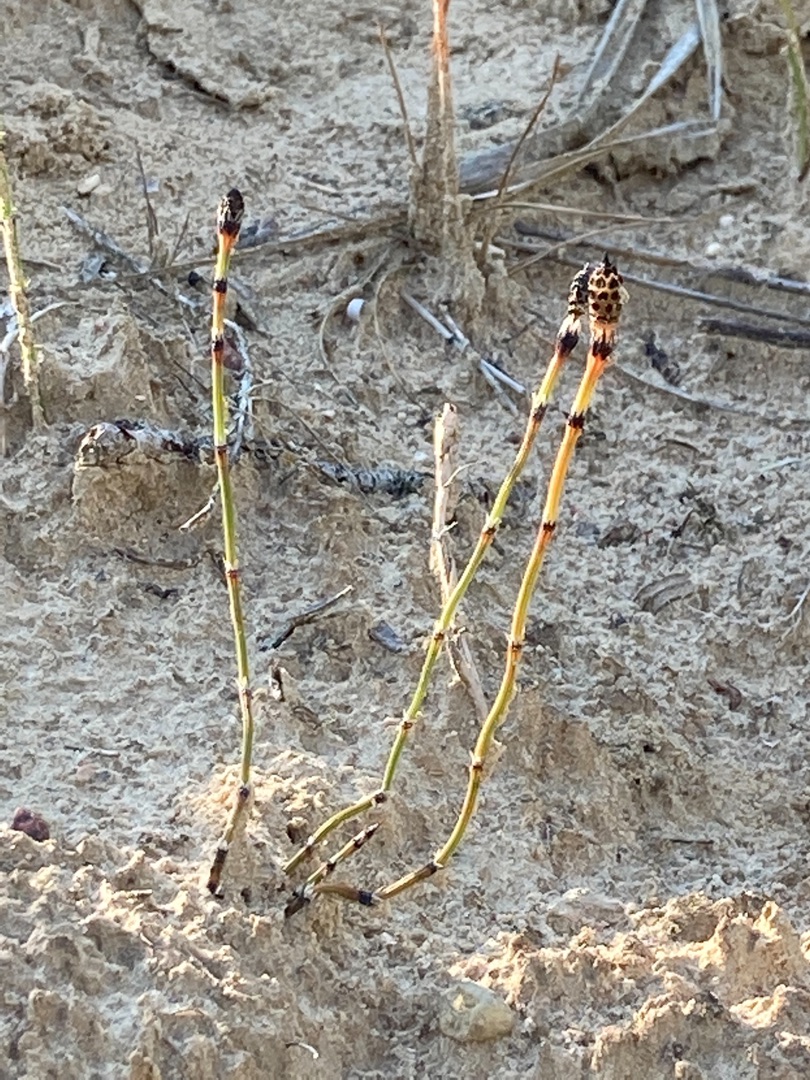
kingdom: Plantae
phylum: Tracheophyta
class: Polypodiopsida
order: Equisetales
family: Equisetaceae
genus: Equisetum
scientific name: Equisetum variegatum
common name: Liden padderok
